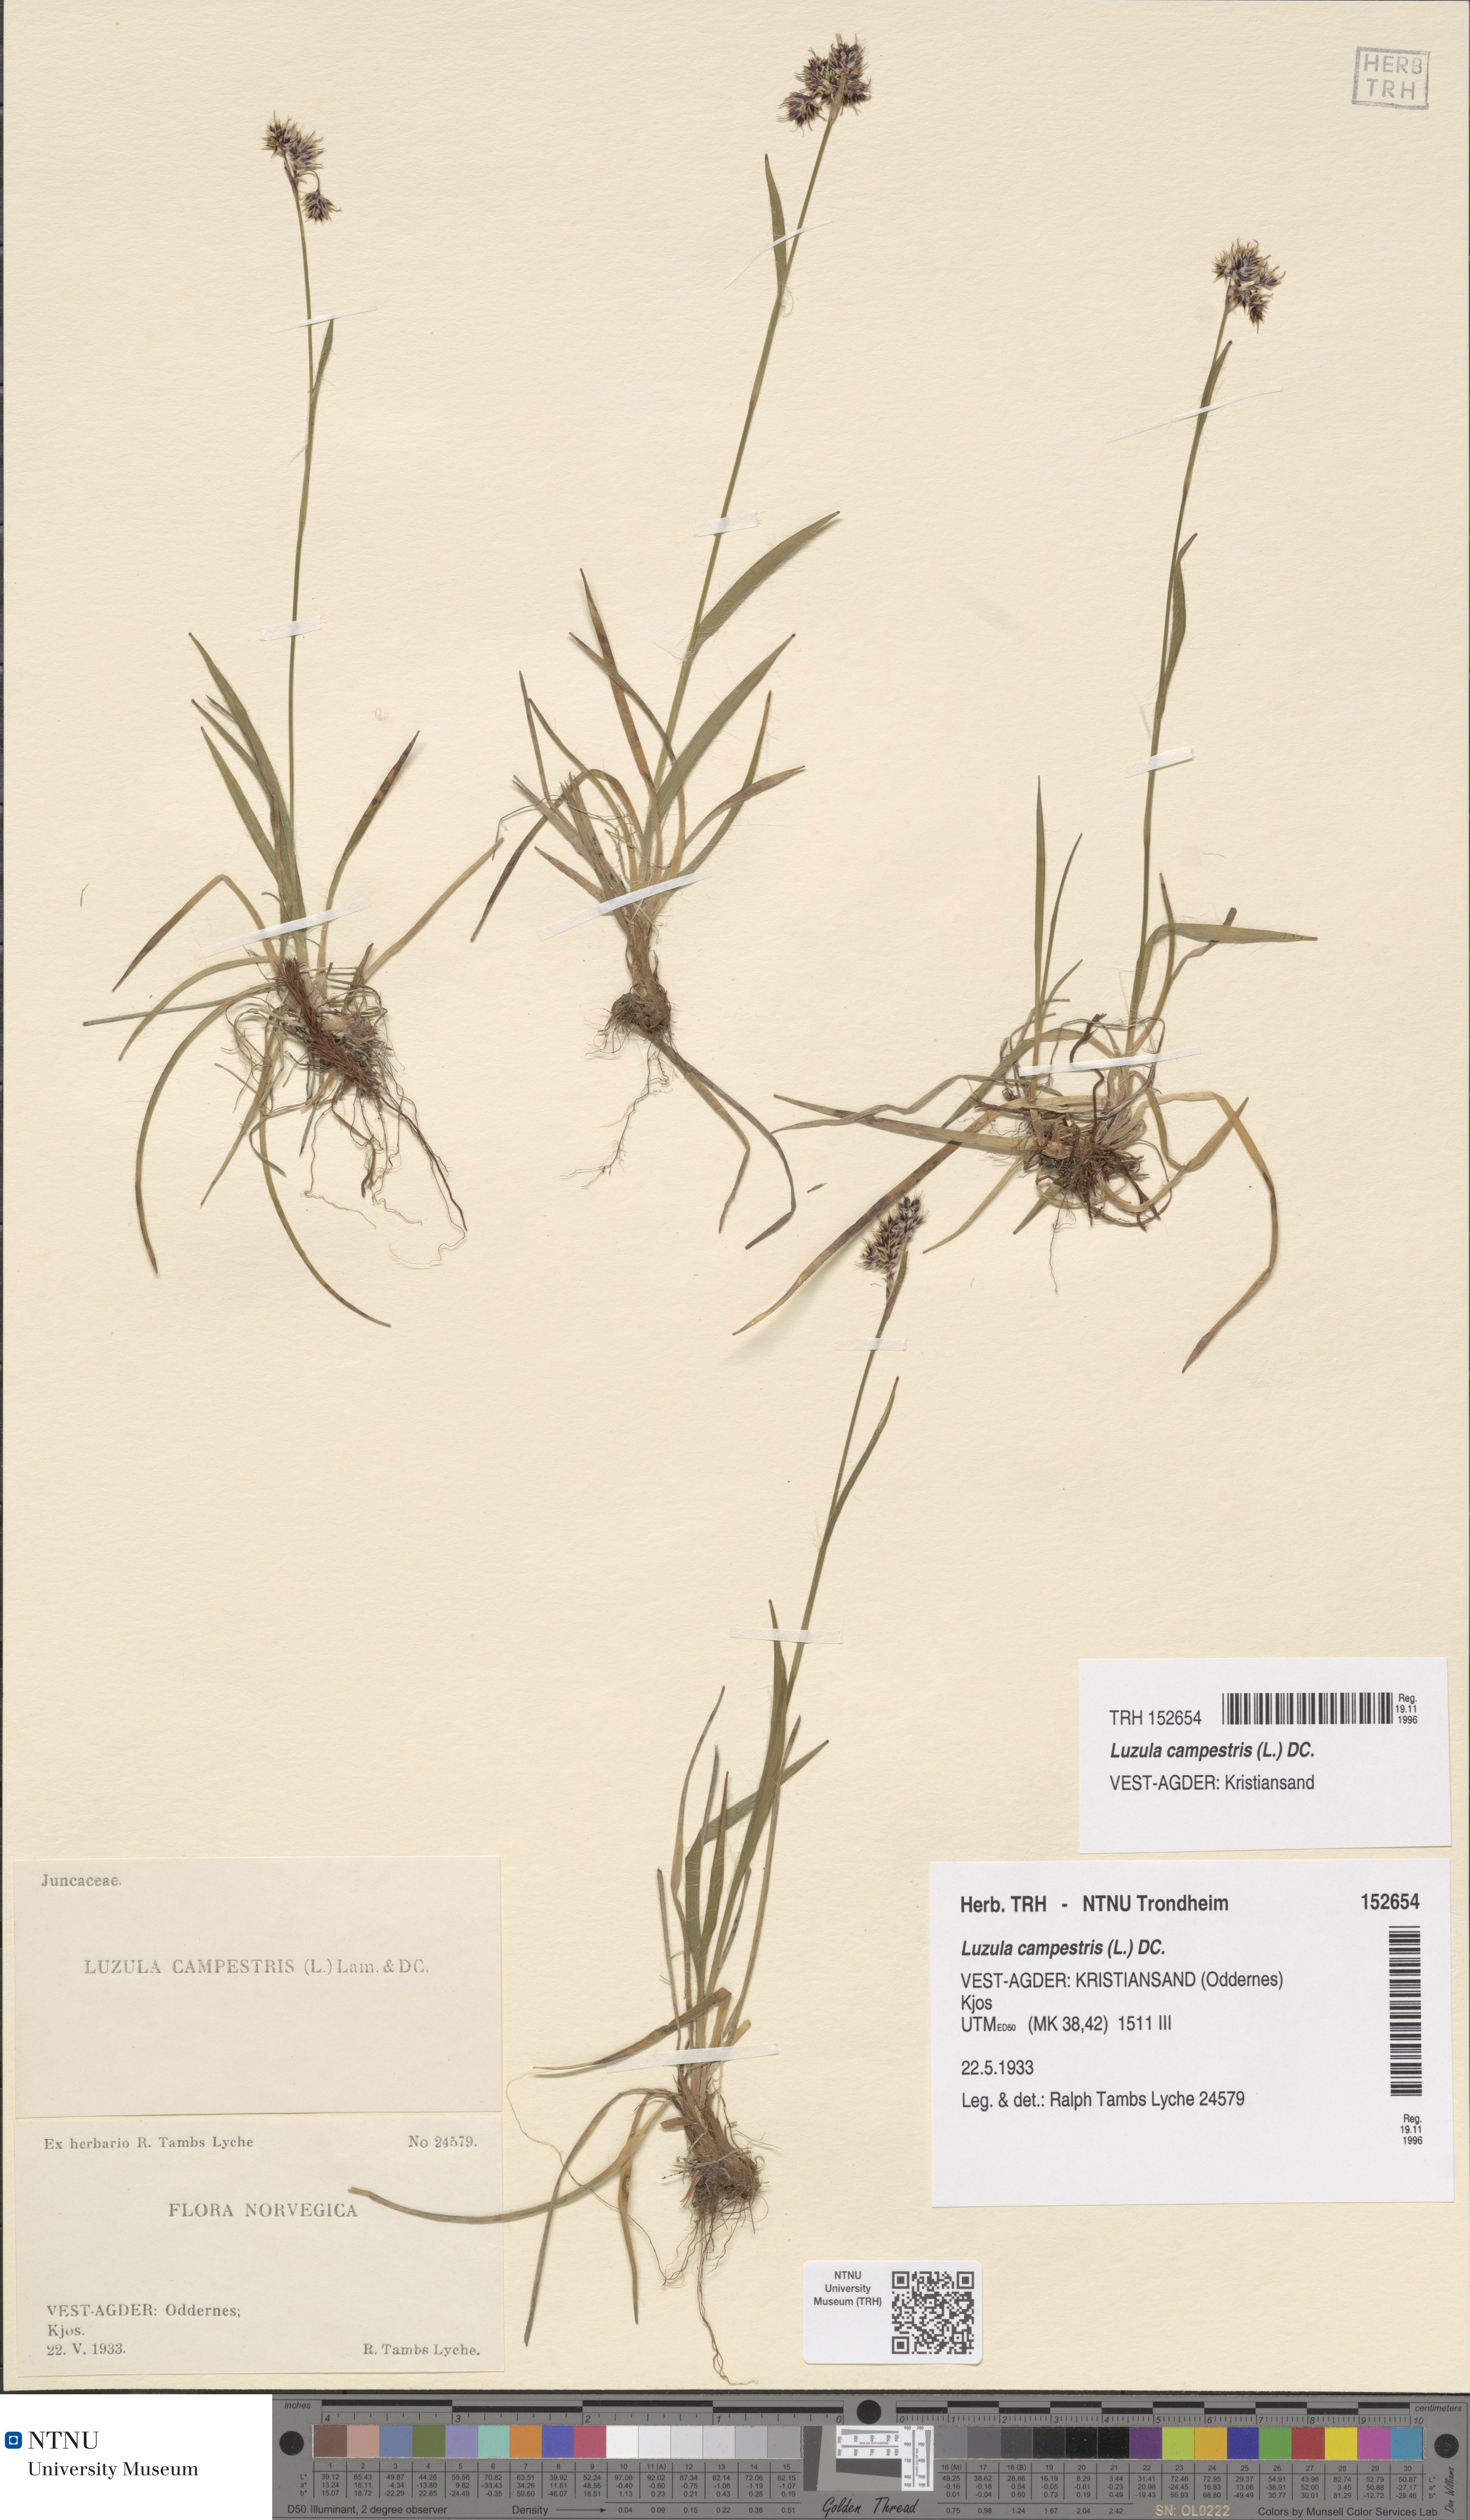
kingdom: Plantae
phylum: Tracheophyta
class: Liliopsida
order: Poales
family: Juncaceae
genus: Luzula
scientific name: Luzula campestris
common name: Field wood-rush
